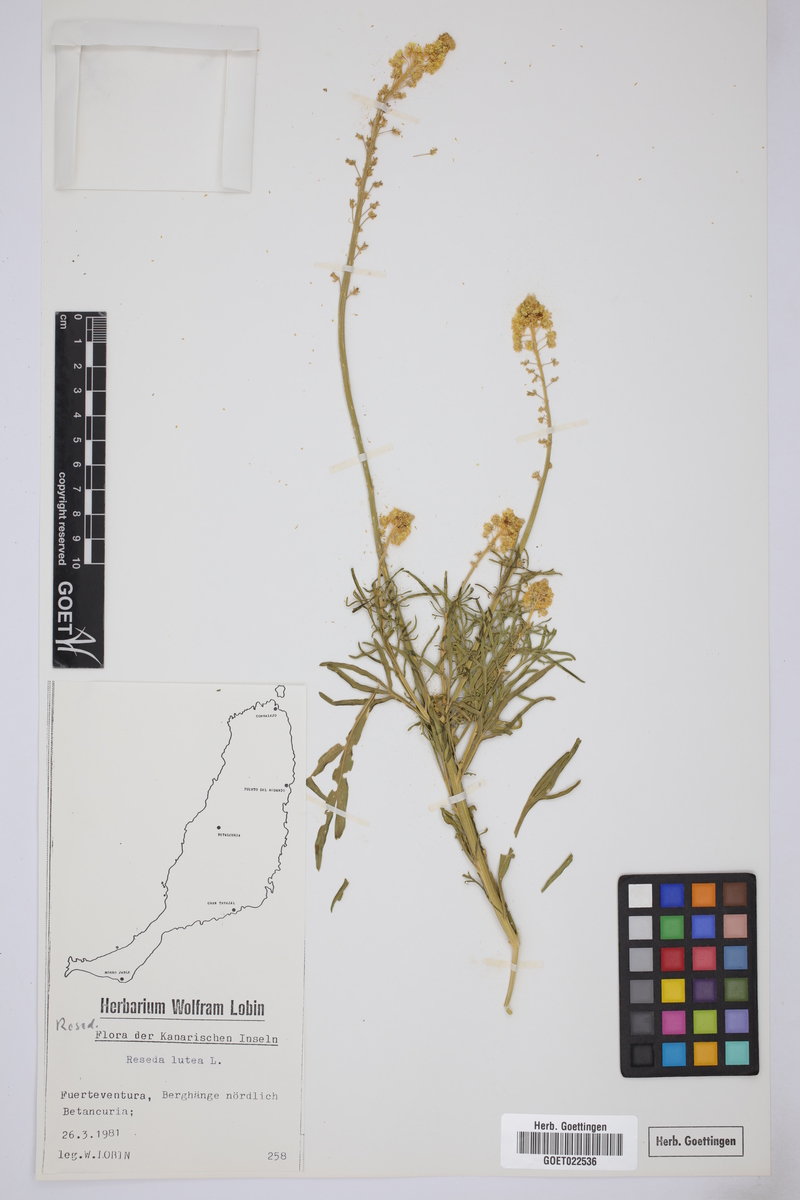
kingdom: Plantae
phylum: Tracheophyta
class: Magnoliopsida
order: Brassicales
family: Resedaceae
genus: Reseda
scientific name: Reseda lutea
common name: Wild mignonette
